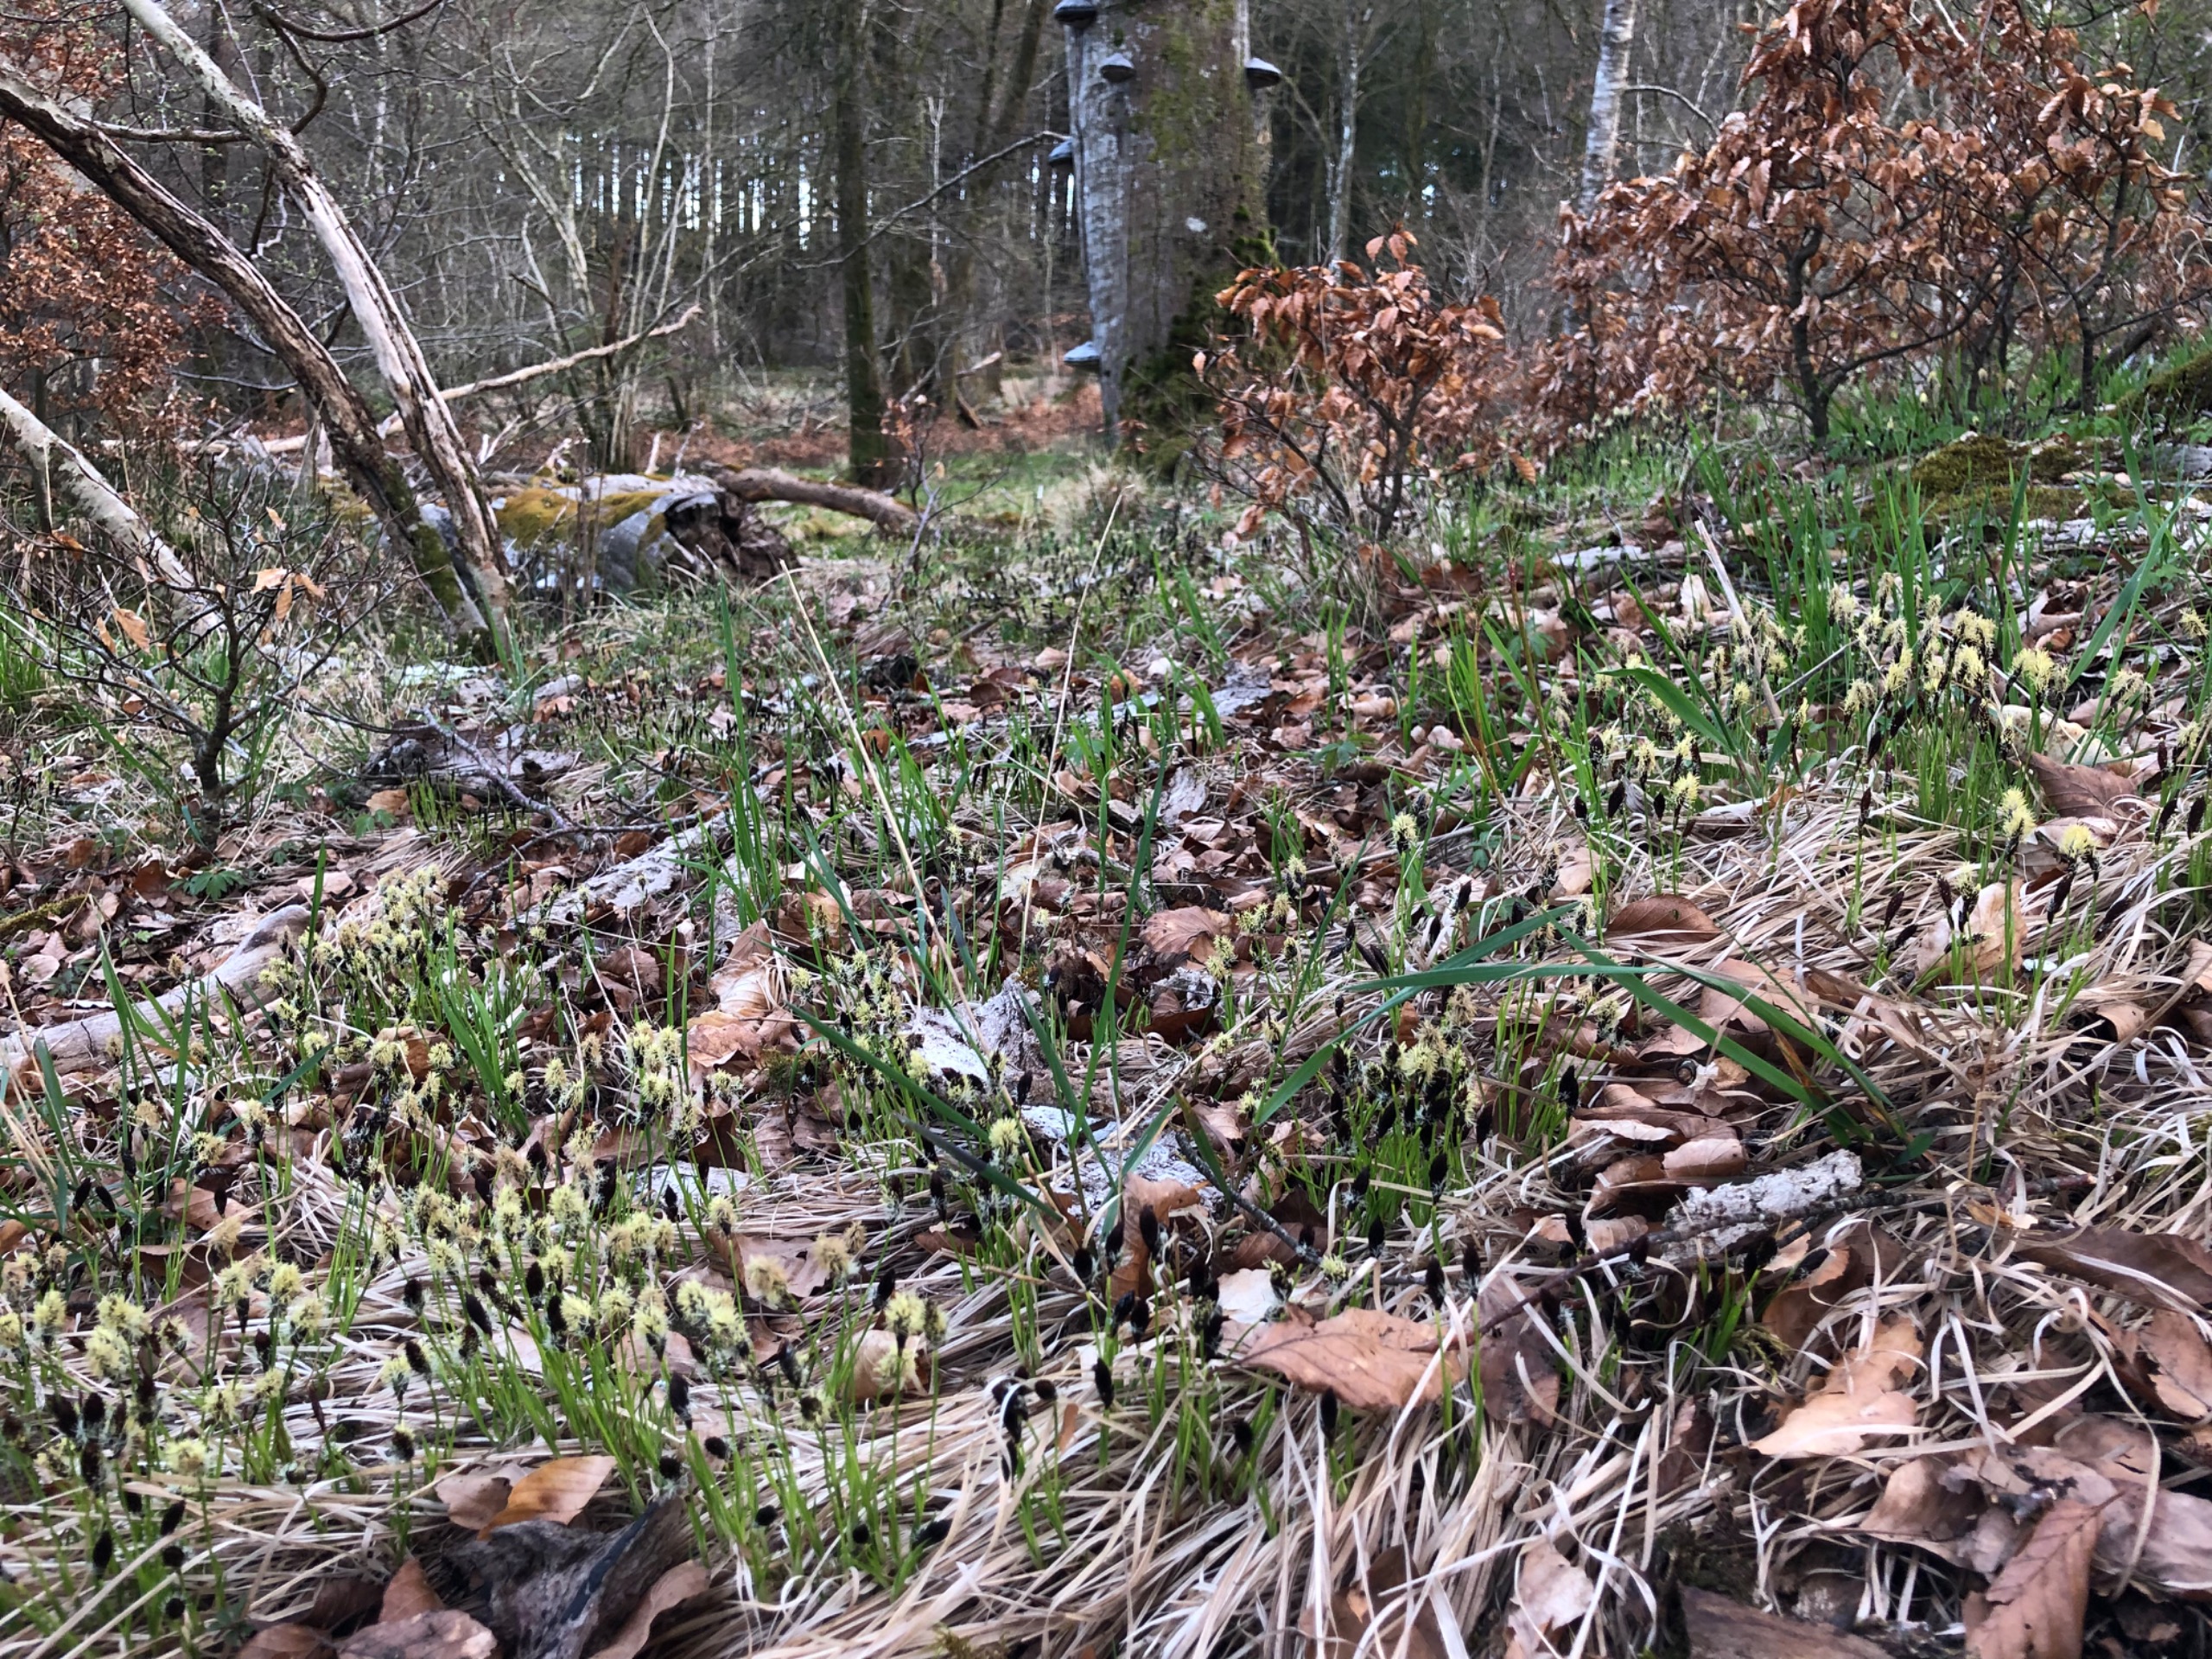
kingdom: Plantae
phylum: Tracheophyta
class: Liliopsida
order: Poales
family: Cyperaceae
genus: Carex
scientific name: Carex montana
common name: Bakke-star
